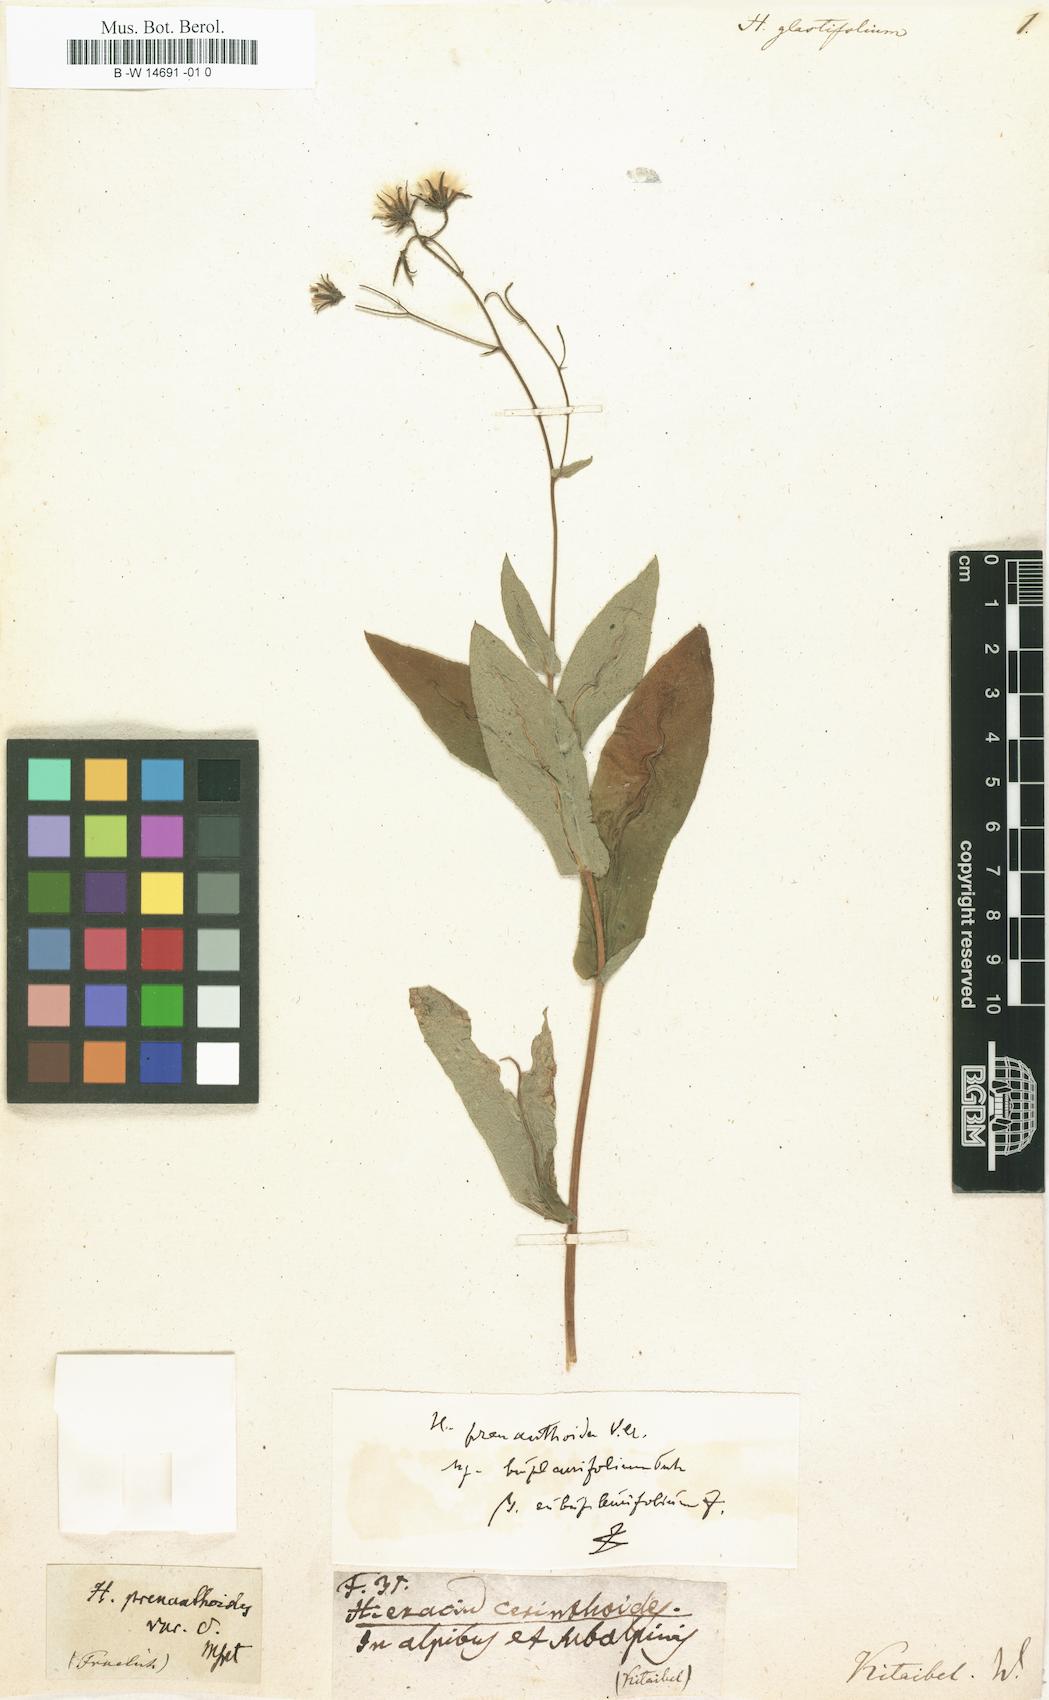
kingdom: Plantae
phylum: Tracheophyta
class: Magnoliopsida
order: Asterales
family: Asteraceae
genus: Hieracium
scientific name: Hieracium glastifolium
